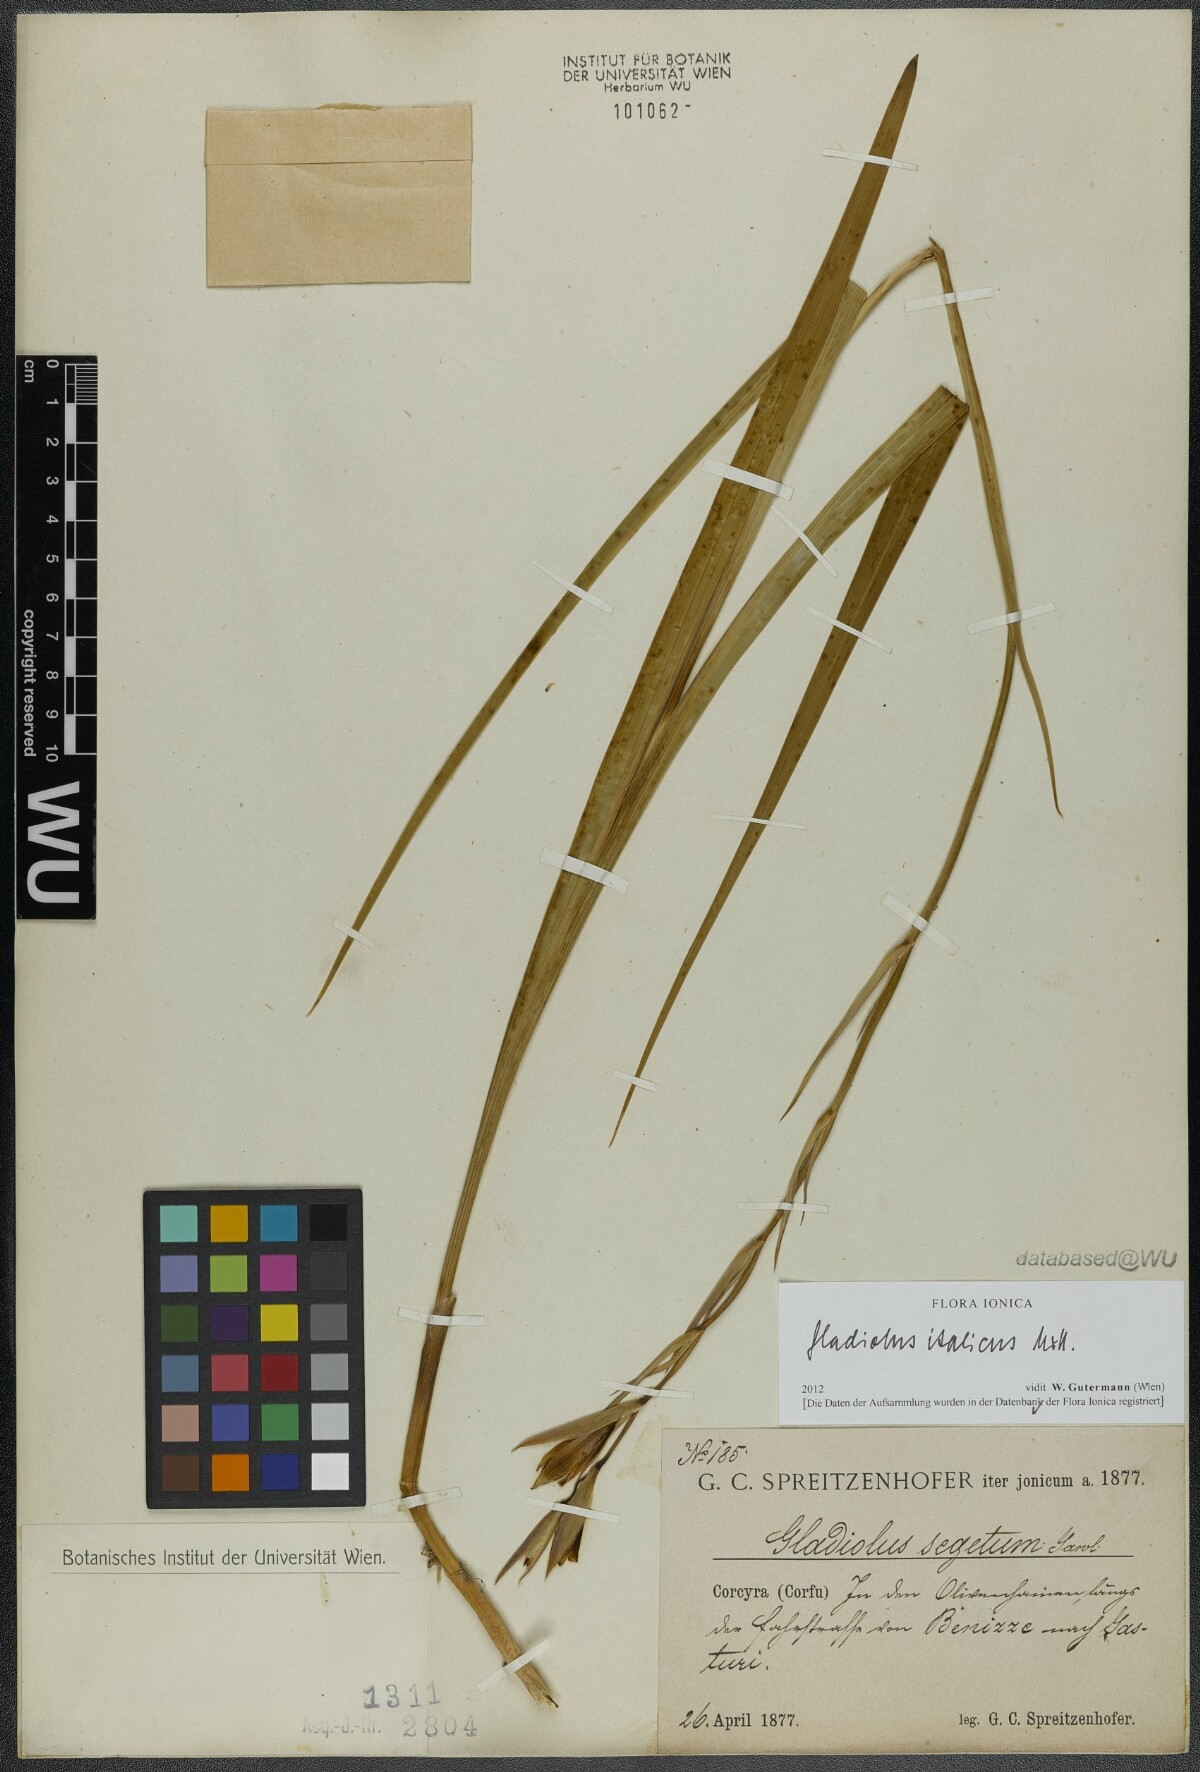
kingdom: Plantae
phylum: Tracheophyta
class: Liliopsida
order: Asparagales
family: Iridaceae
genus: Gladiolus
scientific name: Gladiolus italicus
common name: Field gladiolus
